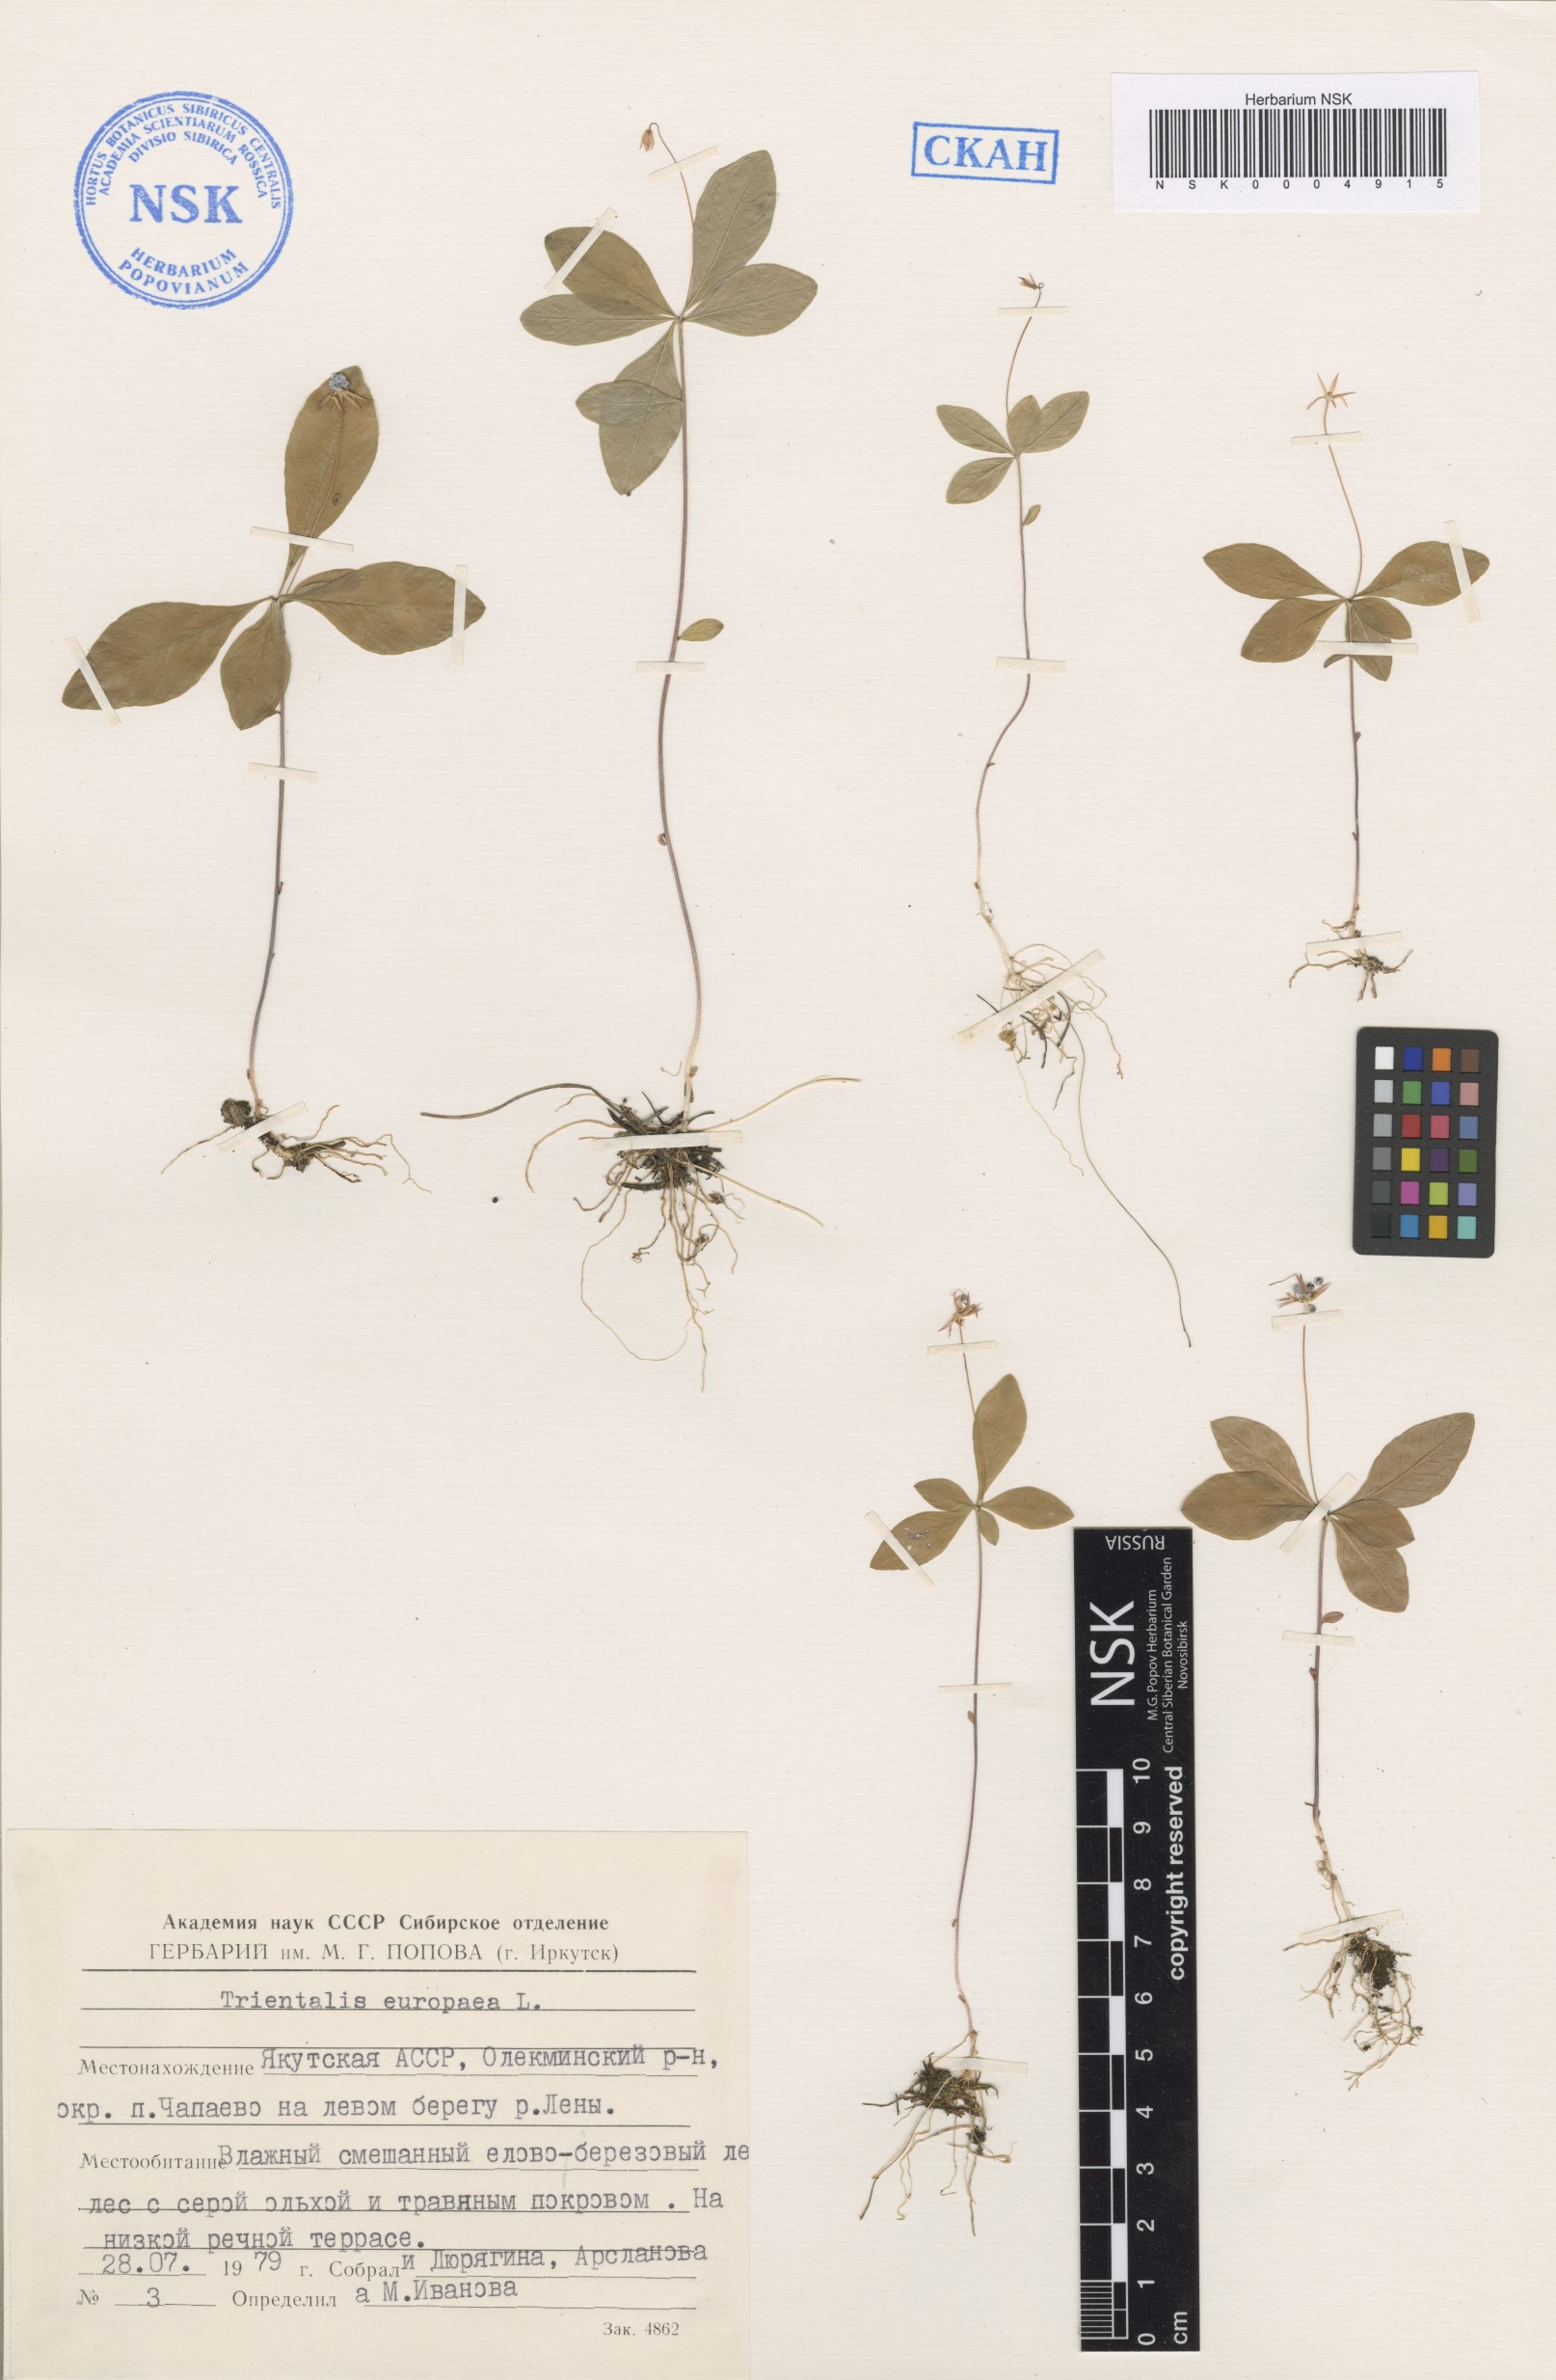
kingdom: Plantae
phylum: Tracheophyta
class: Magnoliopsida
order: Ericales
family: Primulaceae
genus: Lysimachia
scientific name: Lysimachia europaea
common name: Arctic starflower
